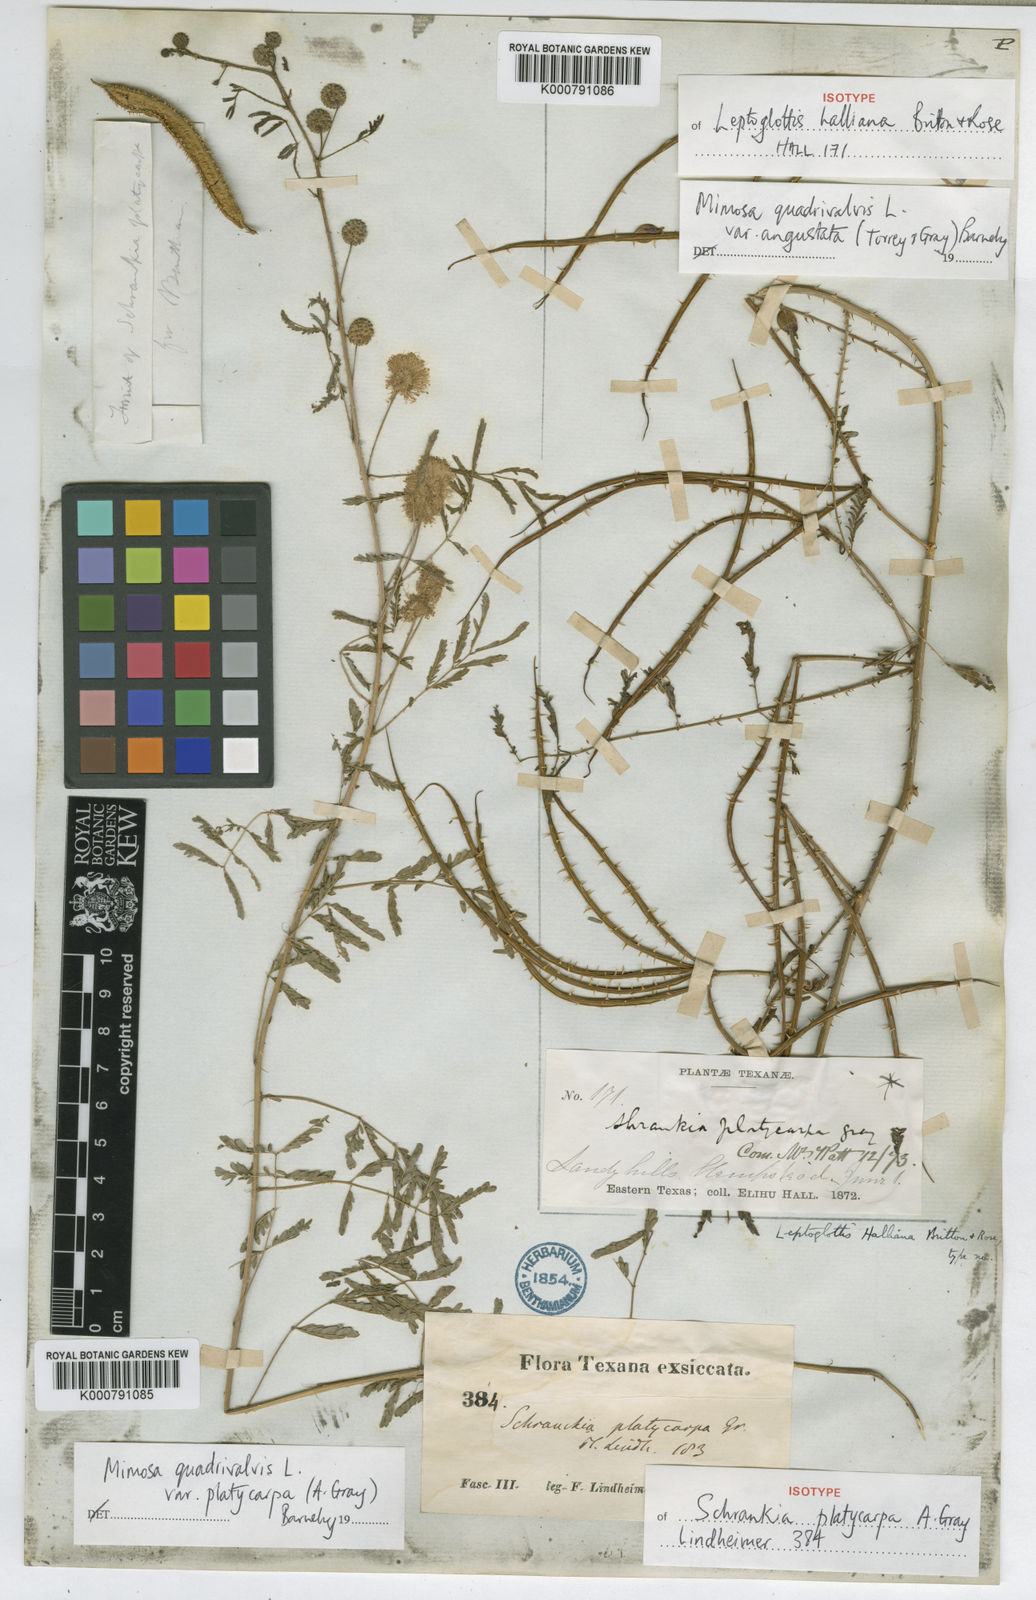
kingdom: Plantae
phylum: Tracheophyta
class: Magnoliopsida
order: Fabales
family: Fabaceae
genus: Mimosa
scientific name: Mimosa quadrivalvis
